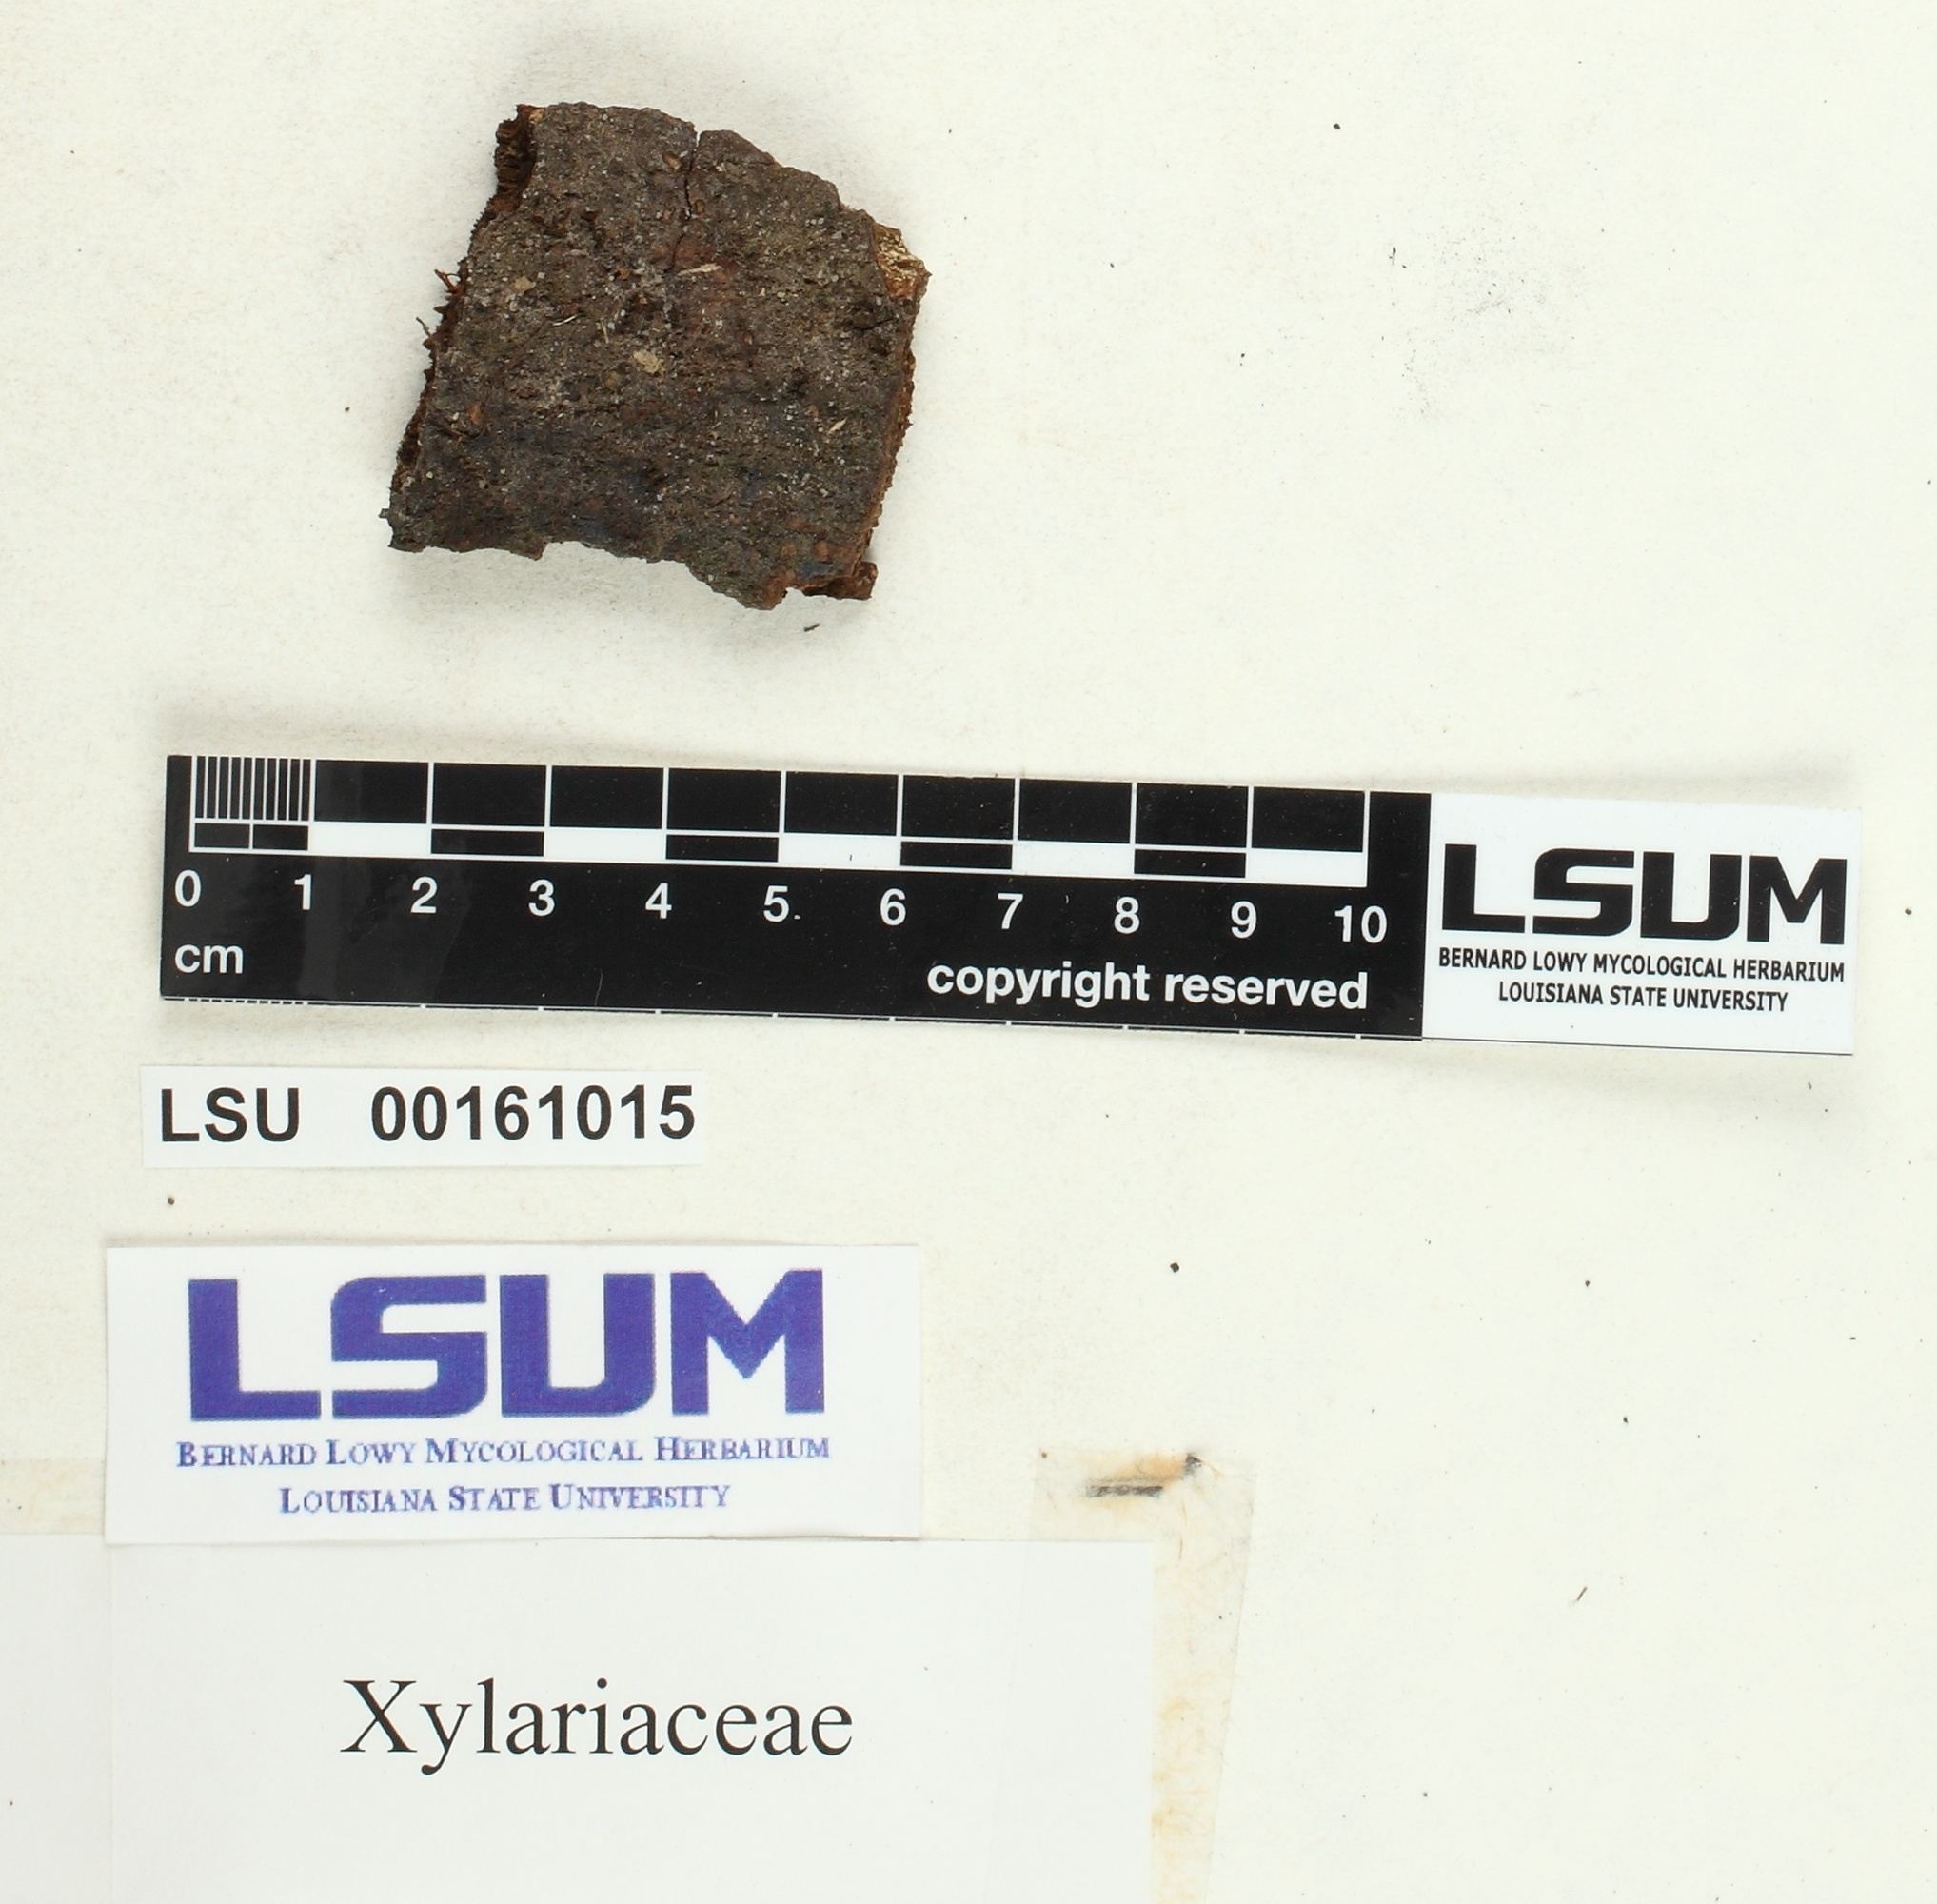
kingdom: Fungi
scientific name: Fungi
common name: Fungi
